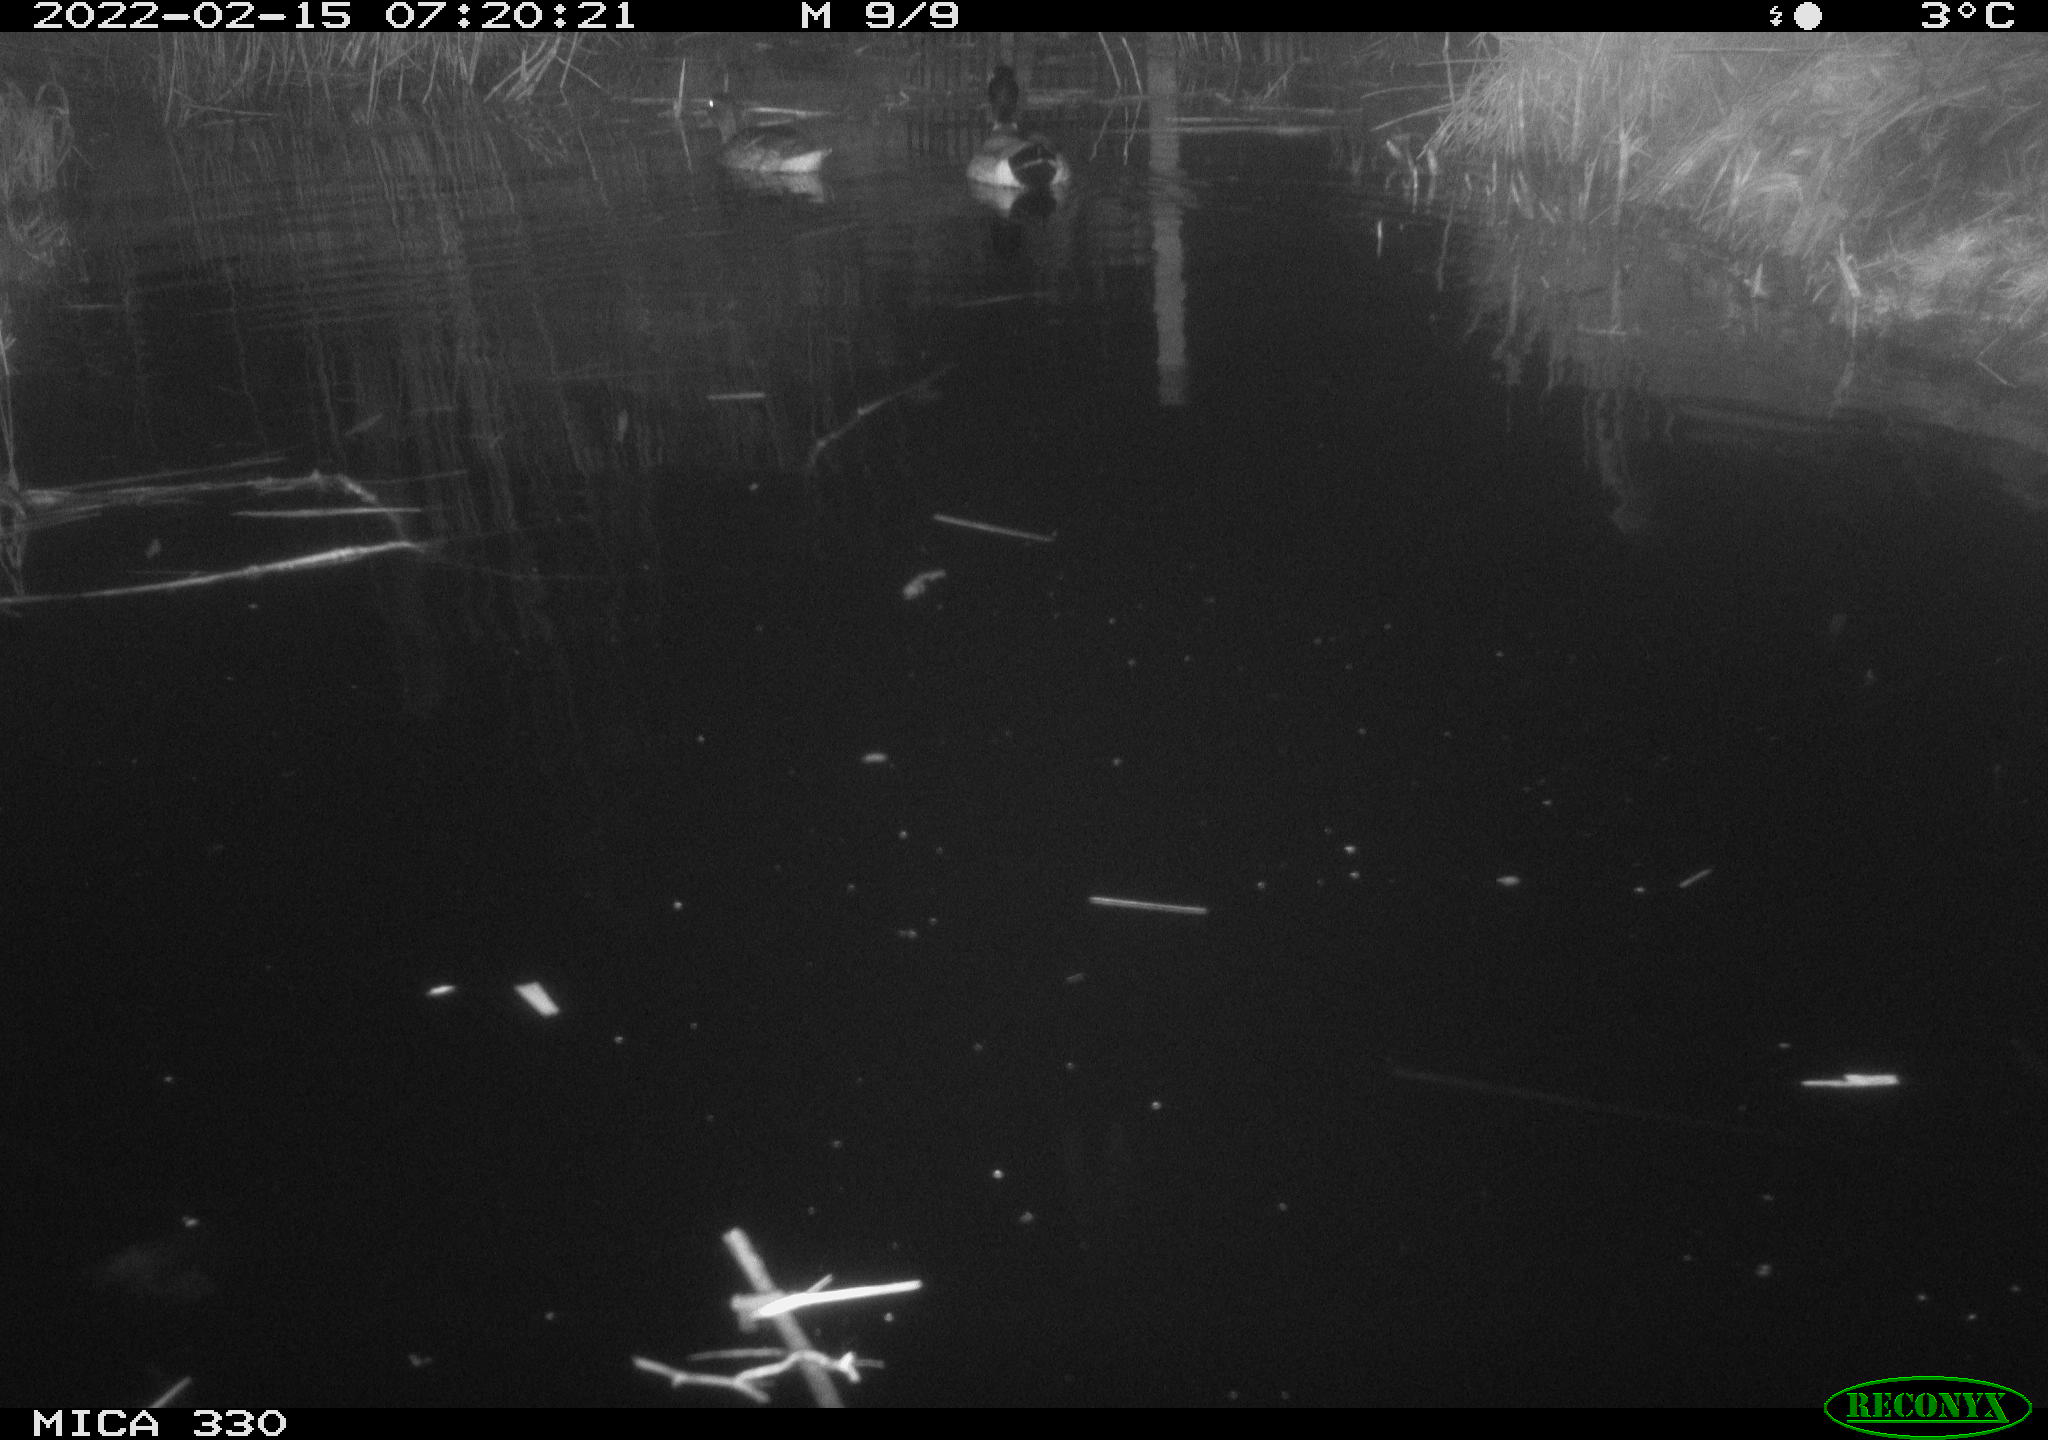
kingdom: Animalia
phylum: Chordata
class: Aves
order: Anseriformes
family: Anatidae
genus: Anas
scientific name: Anas platyrhynchos
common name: Mallard
